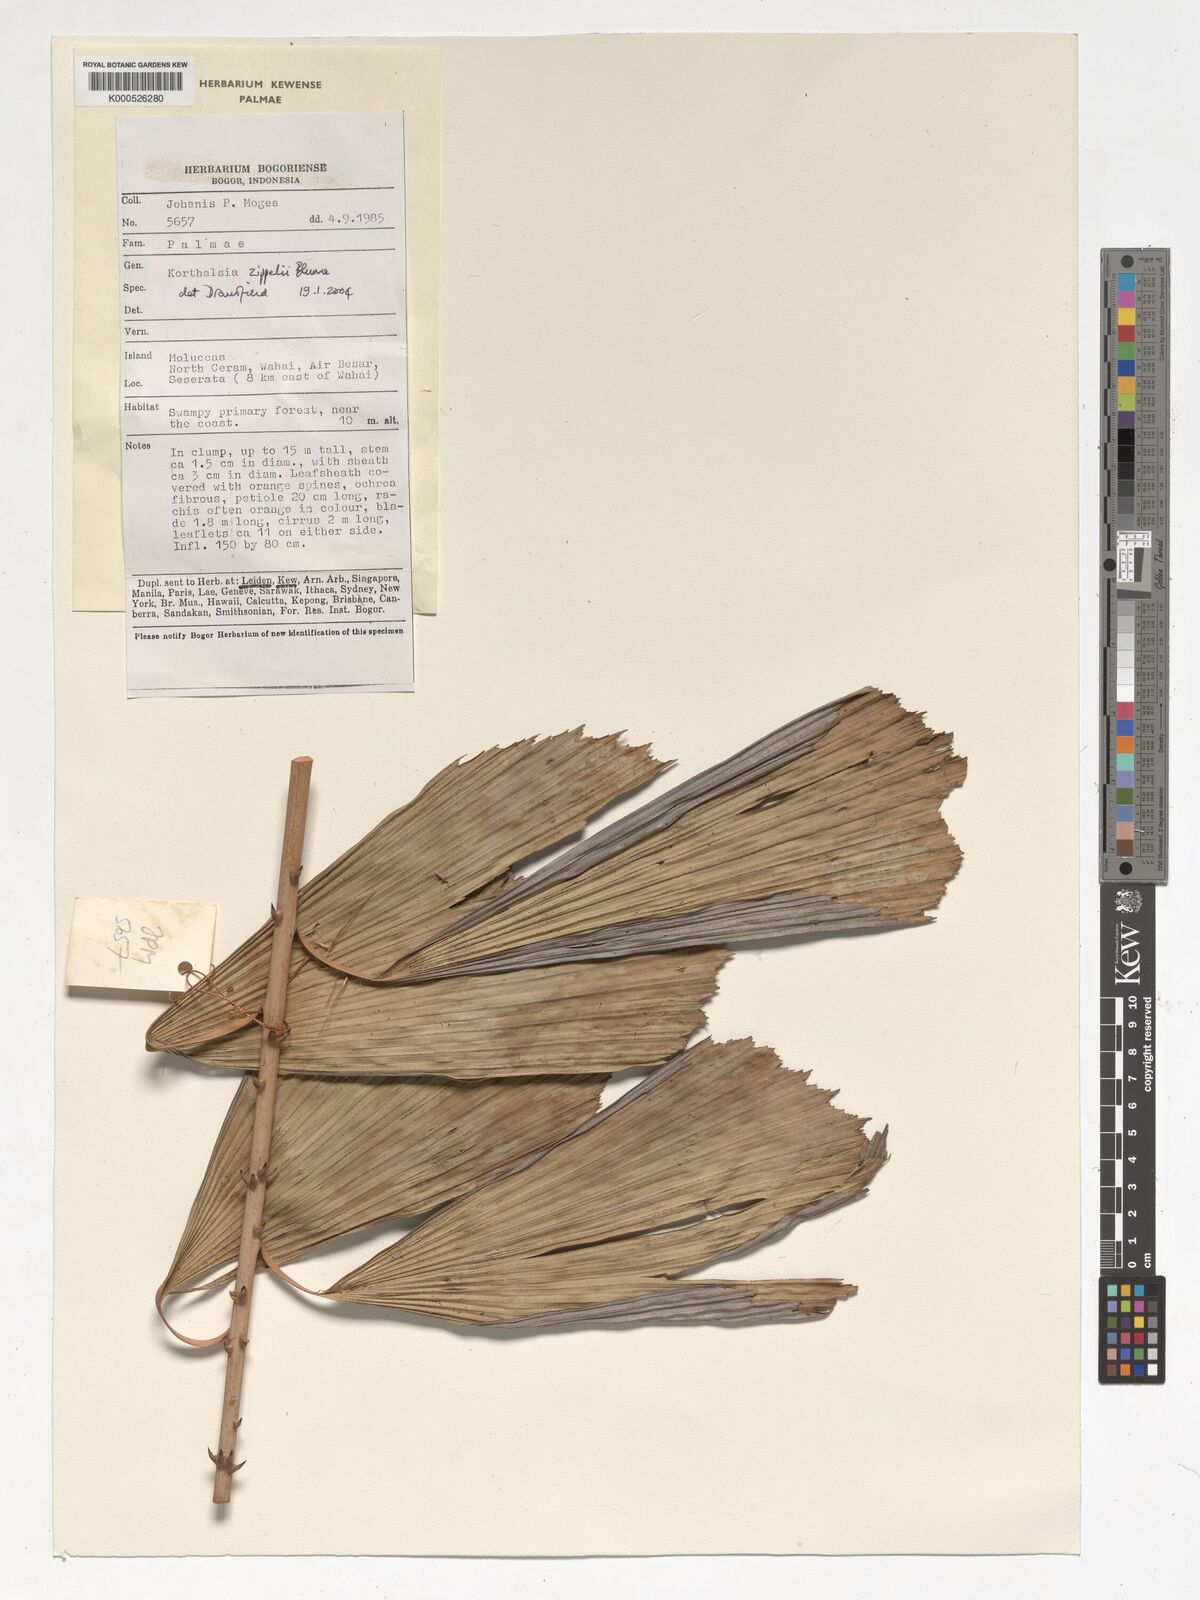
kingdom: Plantae
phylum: Tracheophyta
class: Liliopsida
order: Arecales
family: Arecaceae
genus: Korthalsia
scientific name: Korthalsia zippelii
